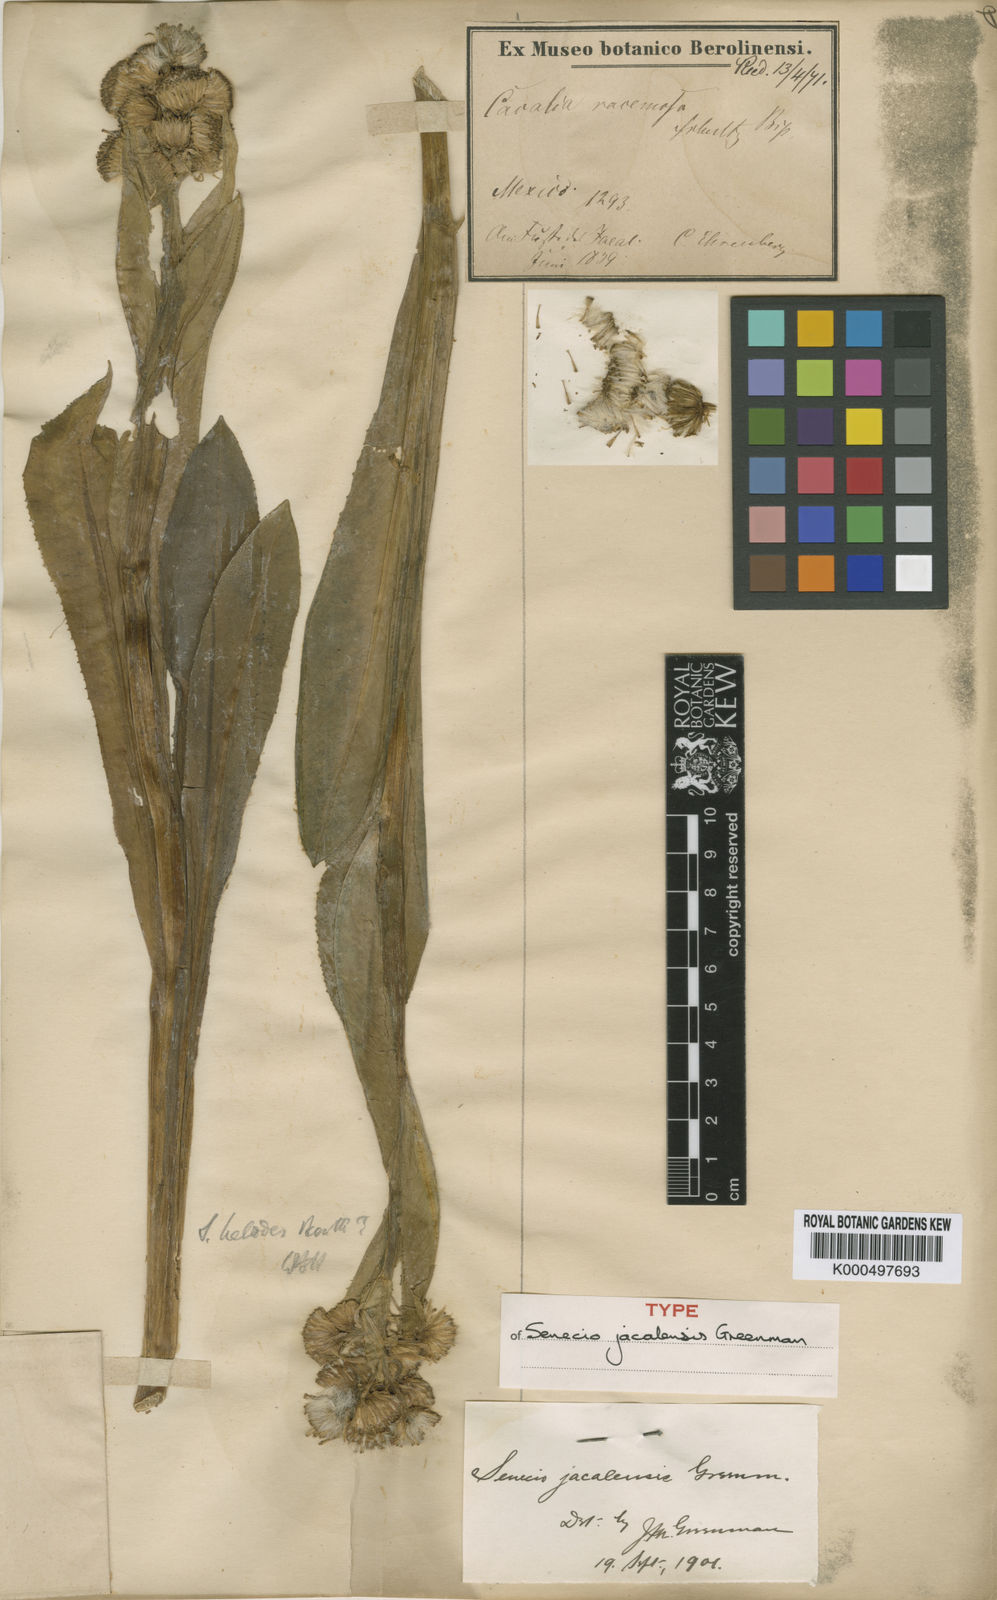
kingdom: Plantae
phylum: Tracheophyta
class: Magnoliopsida
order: Asterales
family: Asteraceae
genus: Senecio
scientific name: Senecio jacalensis
